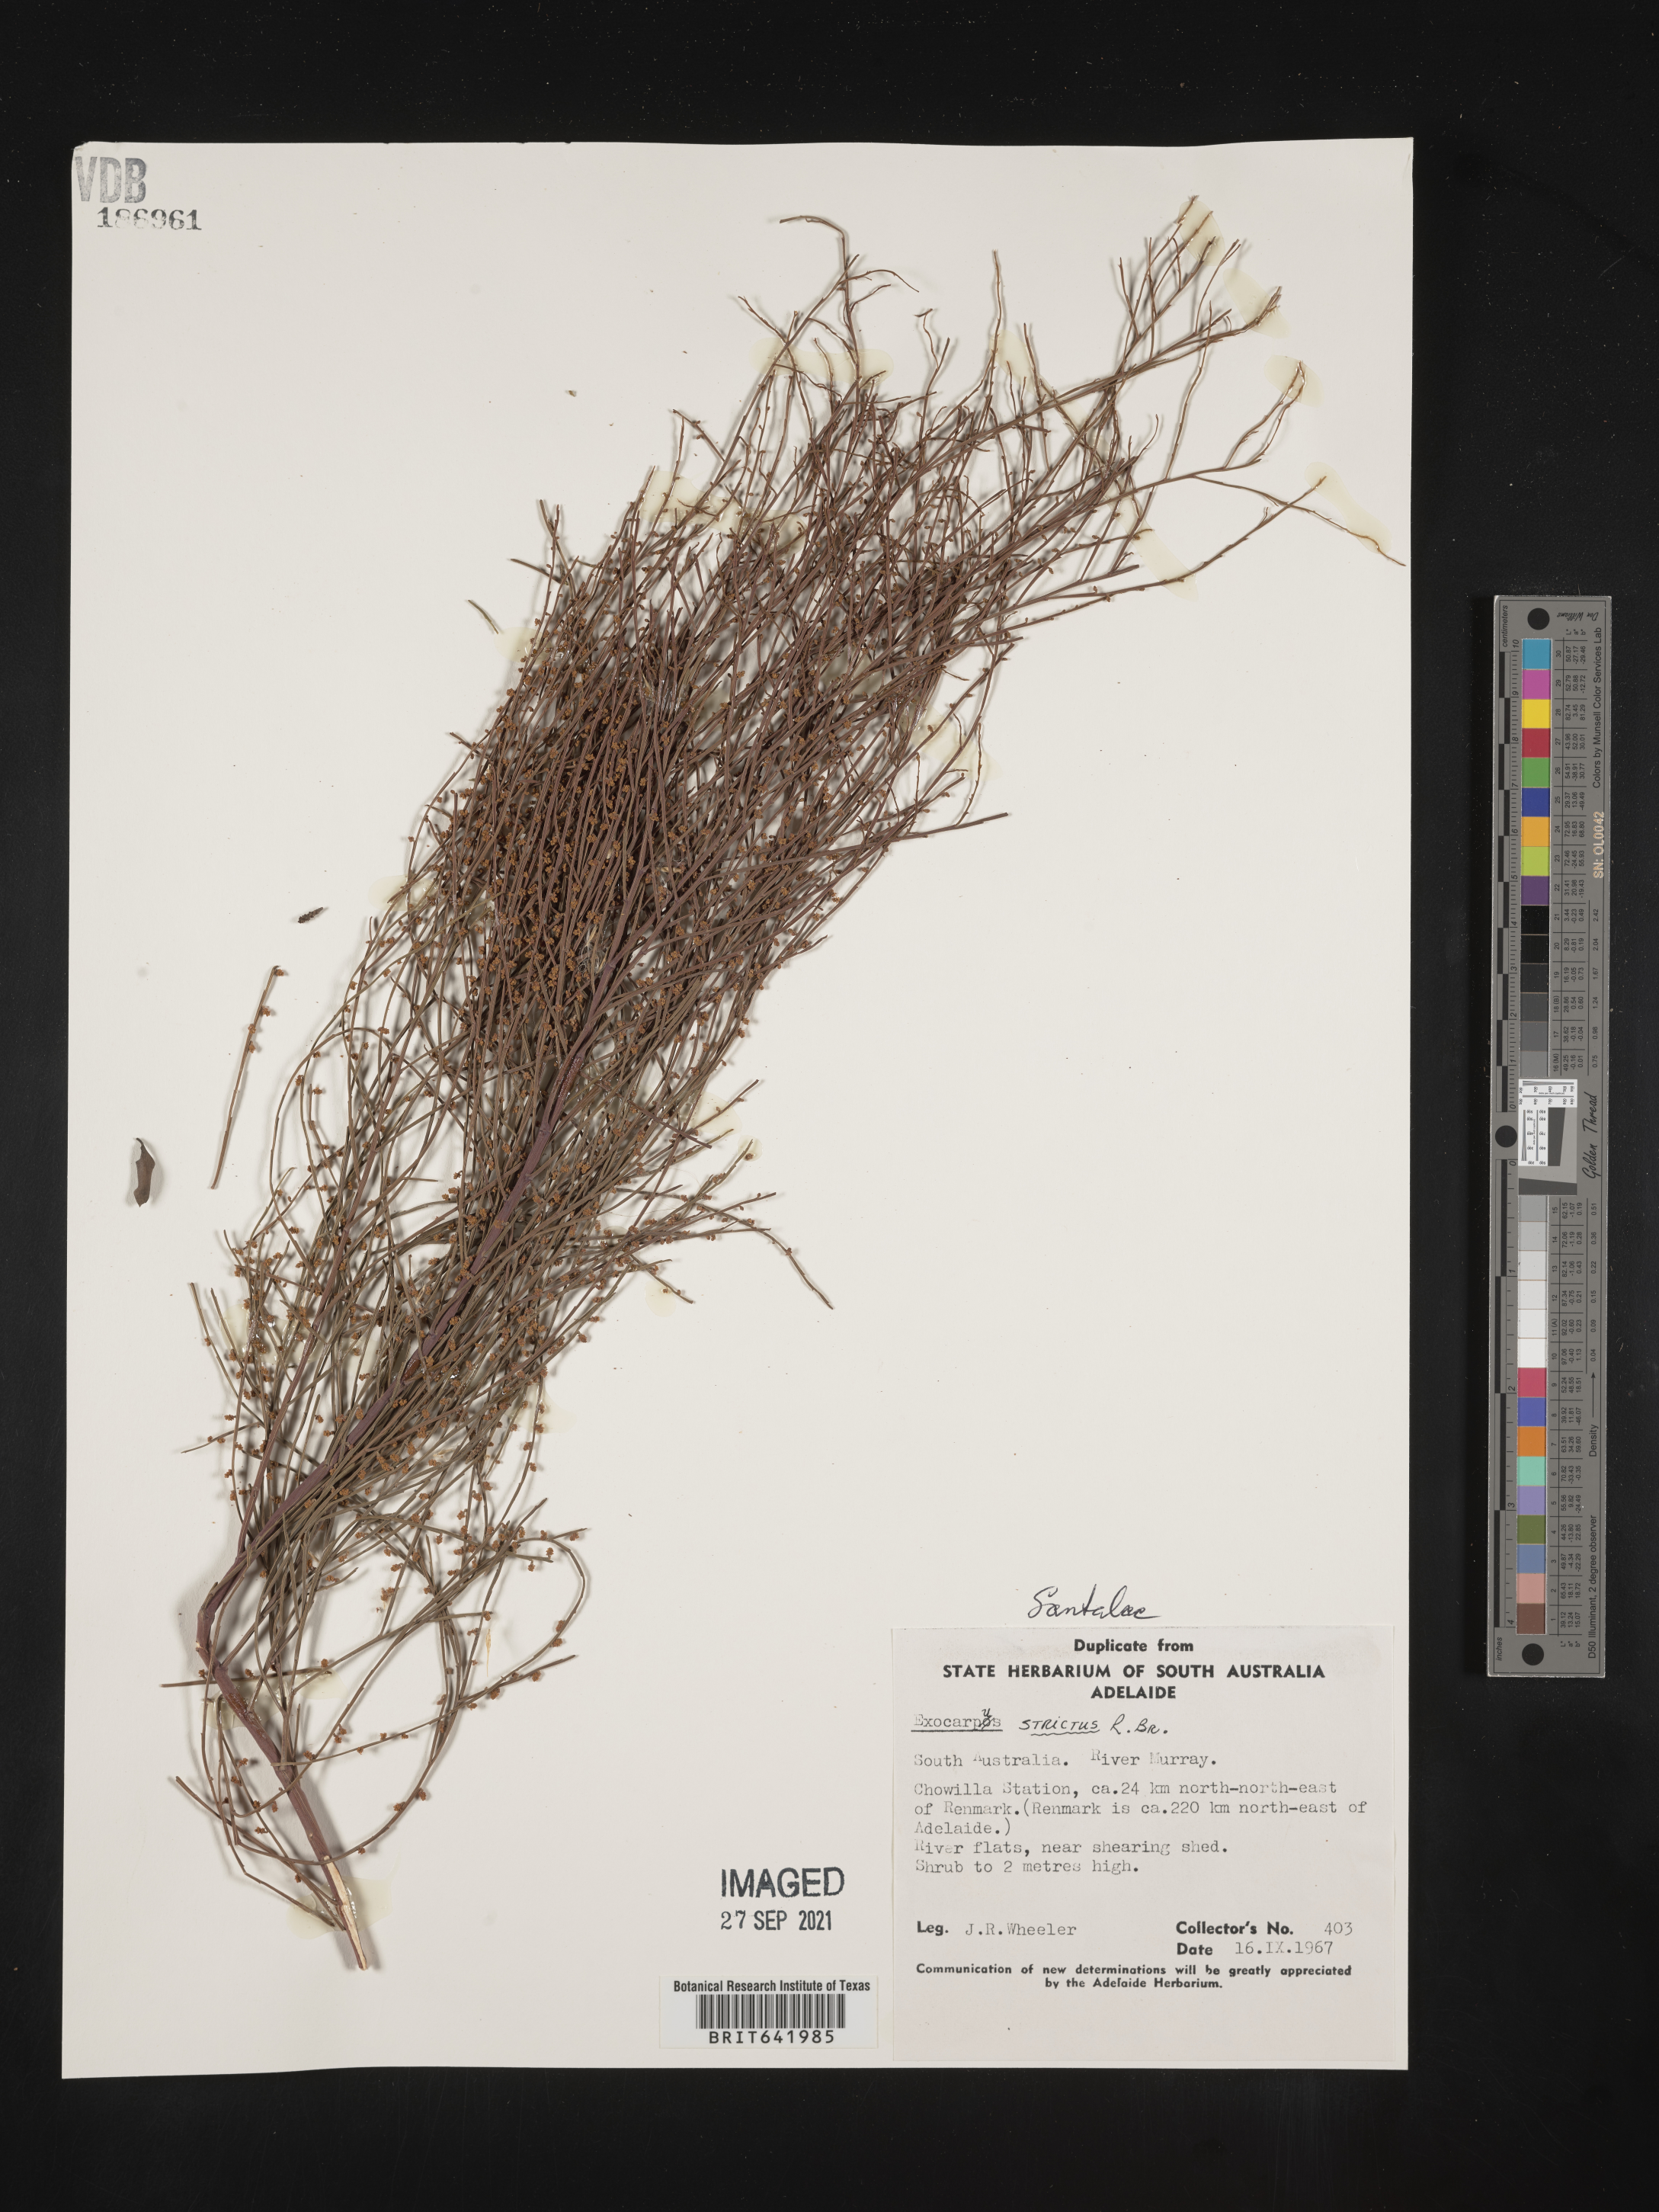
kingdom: Plantae
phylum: Tracheophyta
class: Magnoliopsida
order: Santalales
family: Santalaceae
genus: Exocarpos
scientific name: Exocarpos
